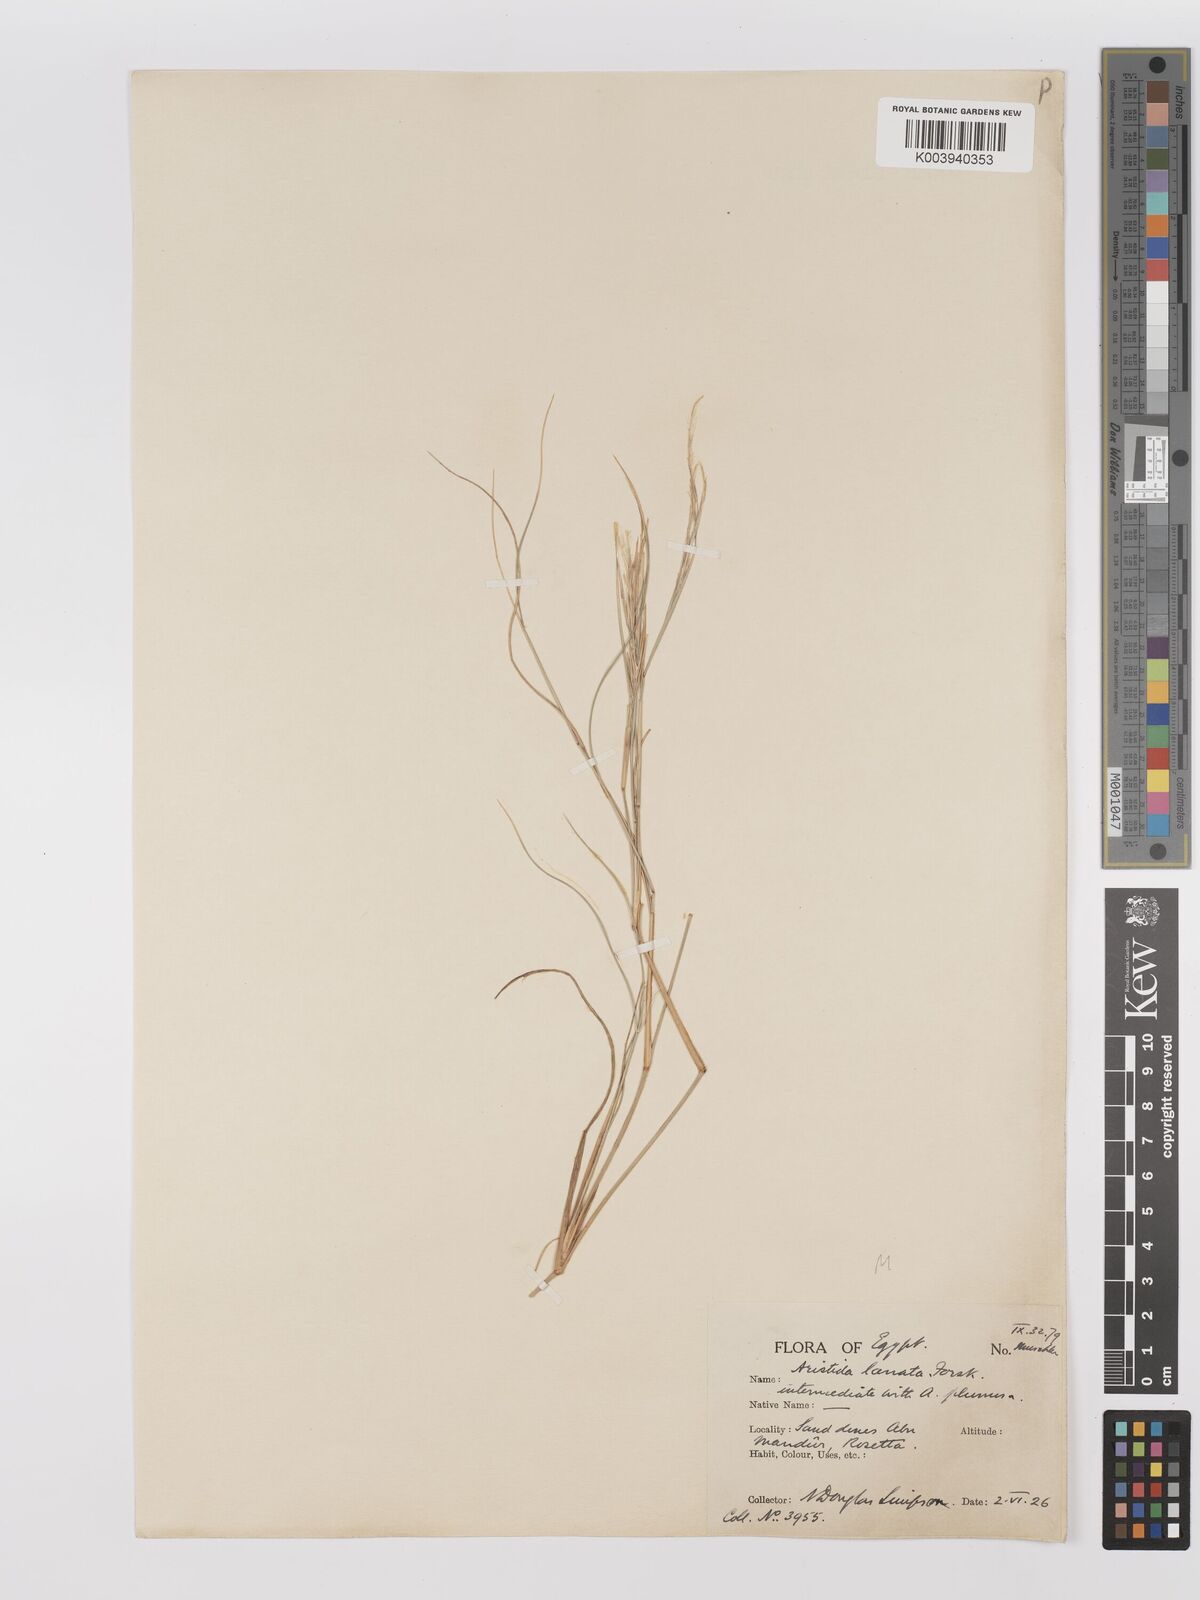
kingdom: Plantae
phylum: Tracheophyta
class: Liliopsida
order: Poales
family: Poaceae
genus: Stipagrostis
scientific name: Stipagrostis lanata
